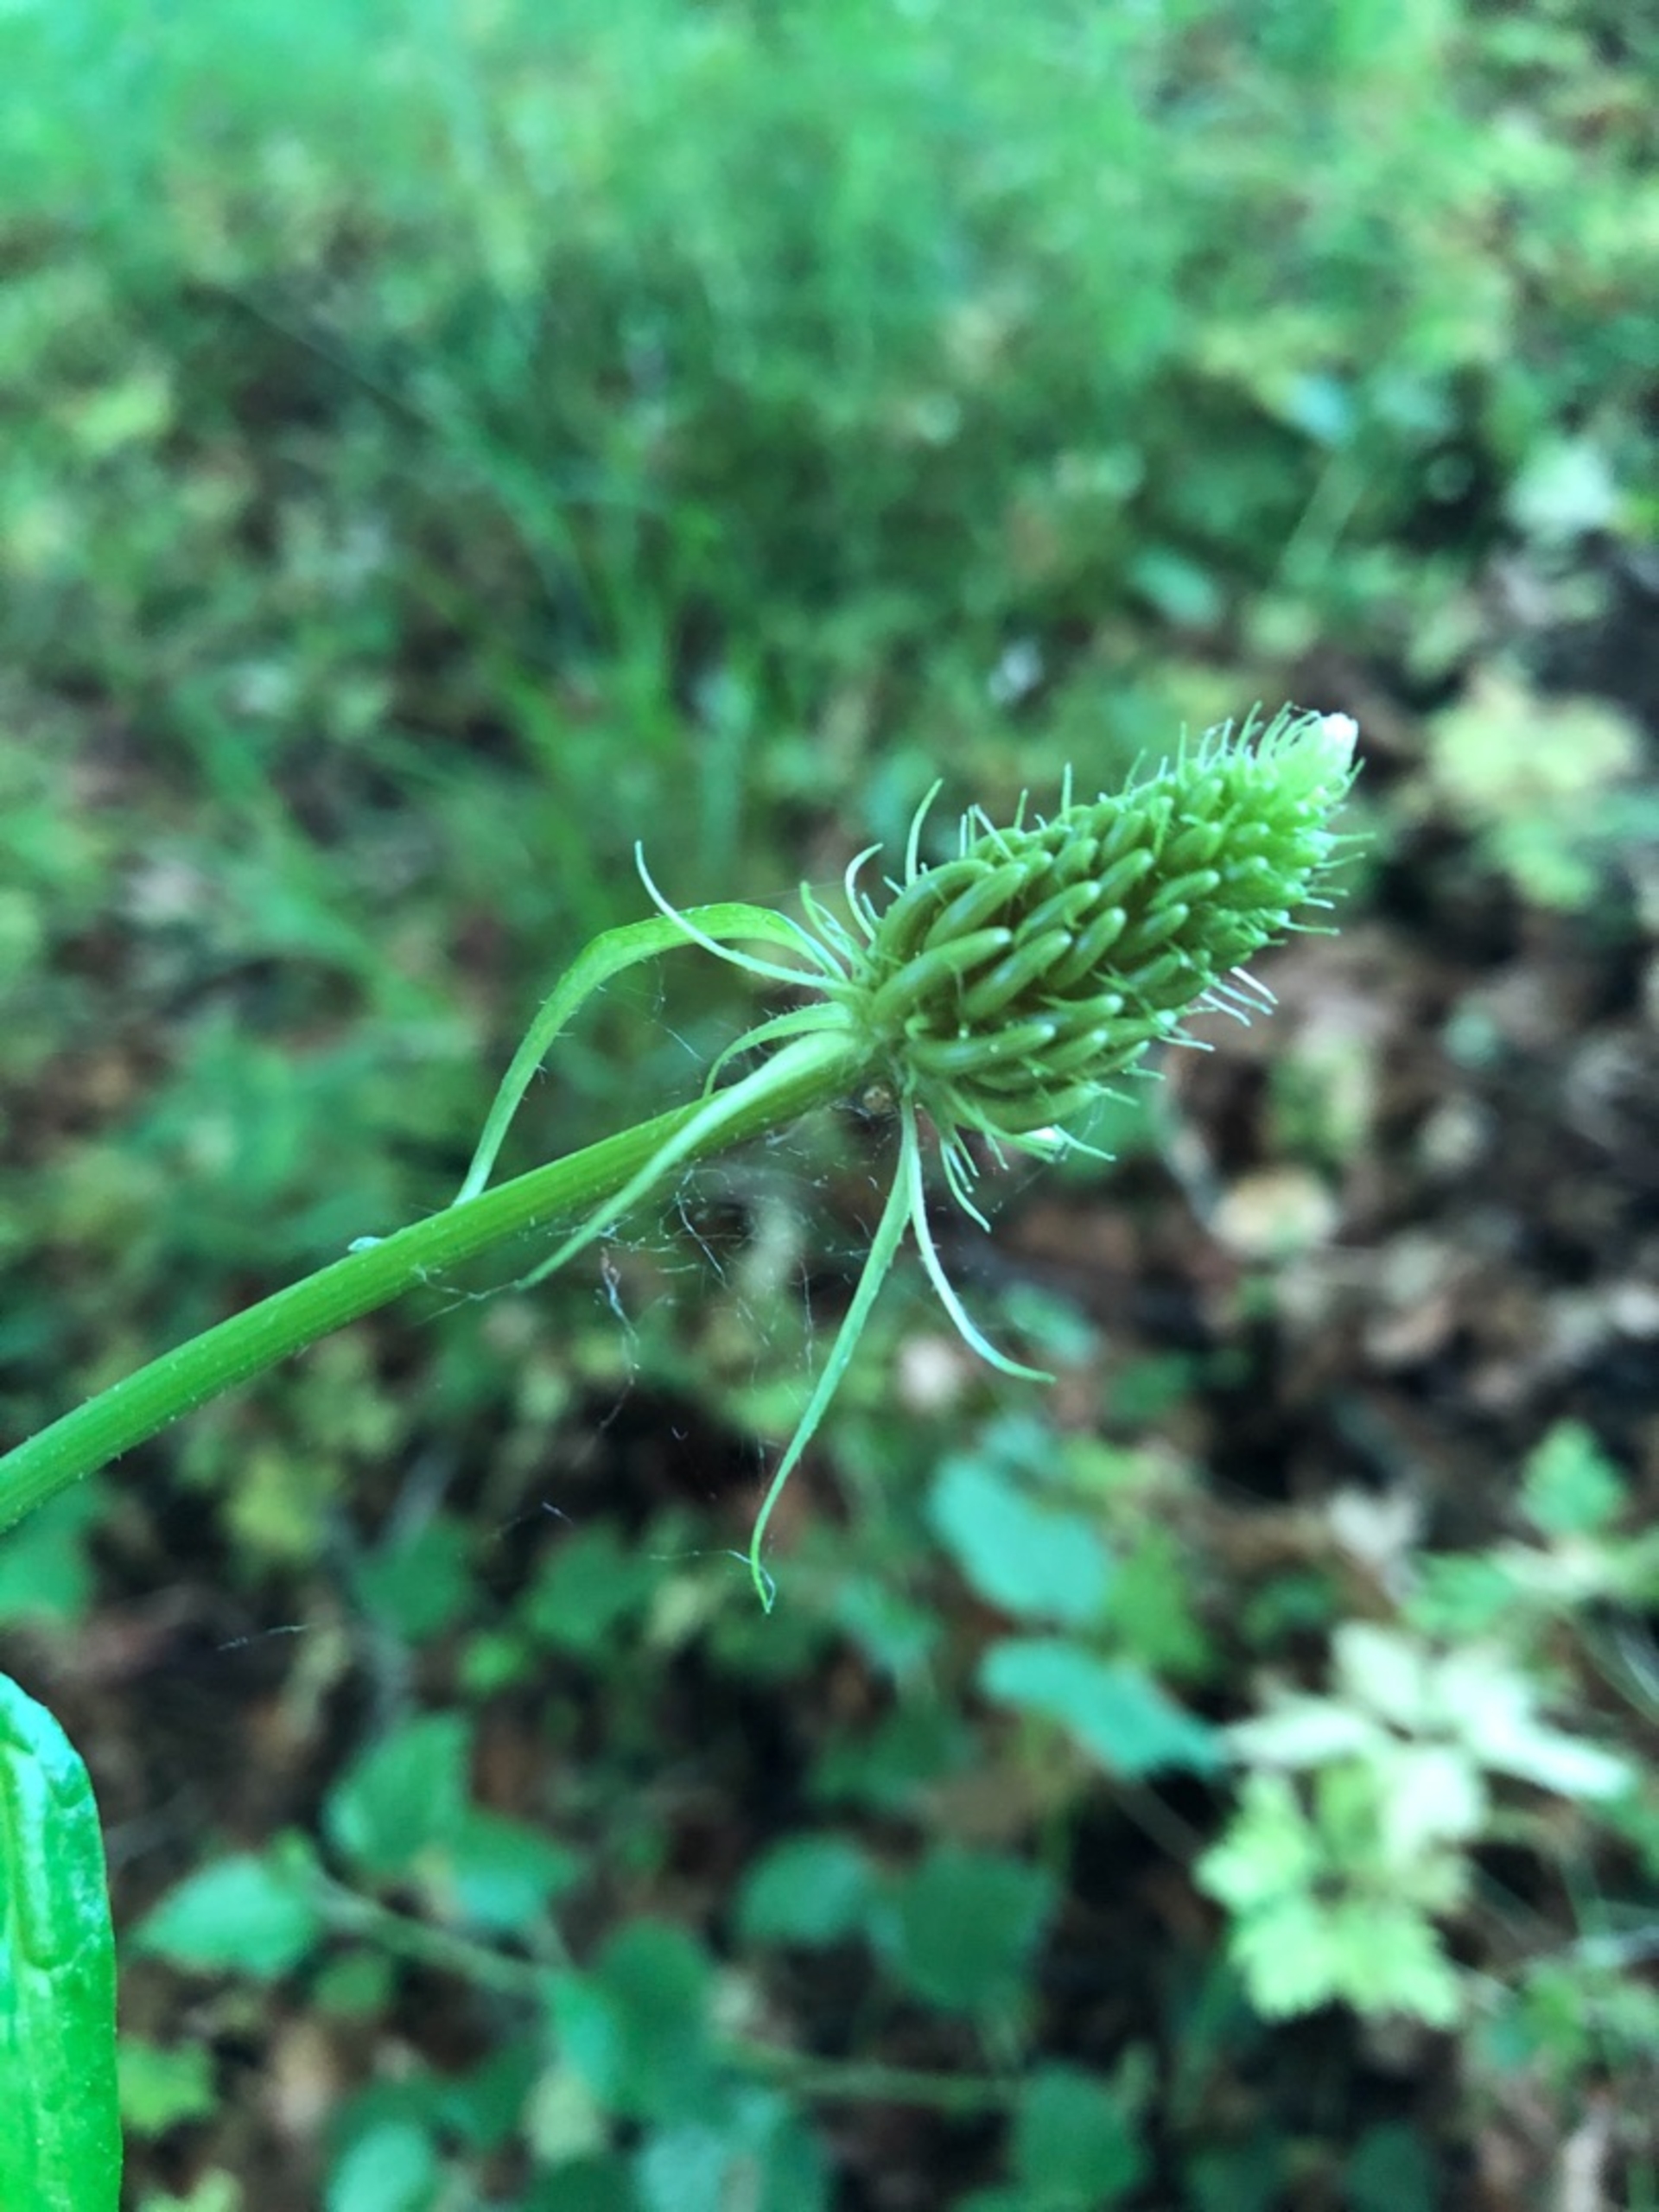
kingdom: Plantae
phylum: Tracheophyta
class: Magnoliopsida
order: Asterales
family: Campanulaceae
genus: Phyteuma
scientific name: Phyteuma spicatum
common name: Aks-rapunsel
